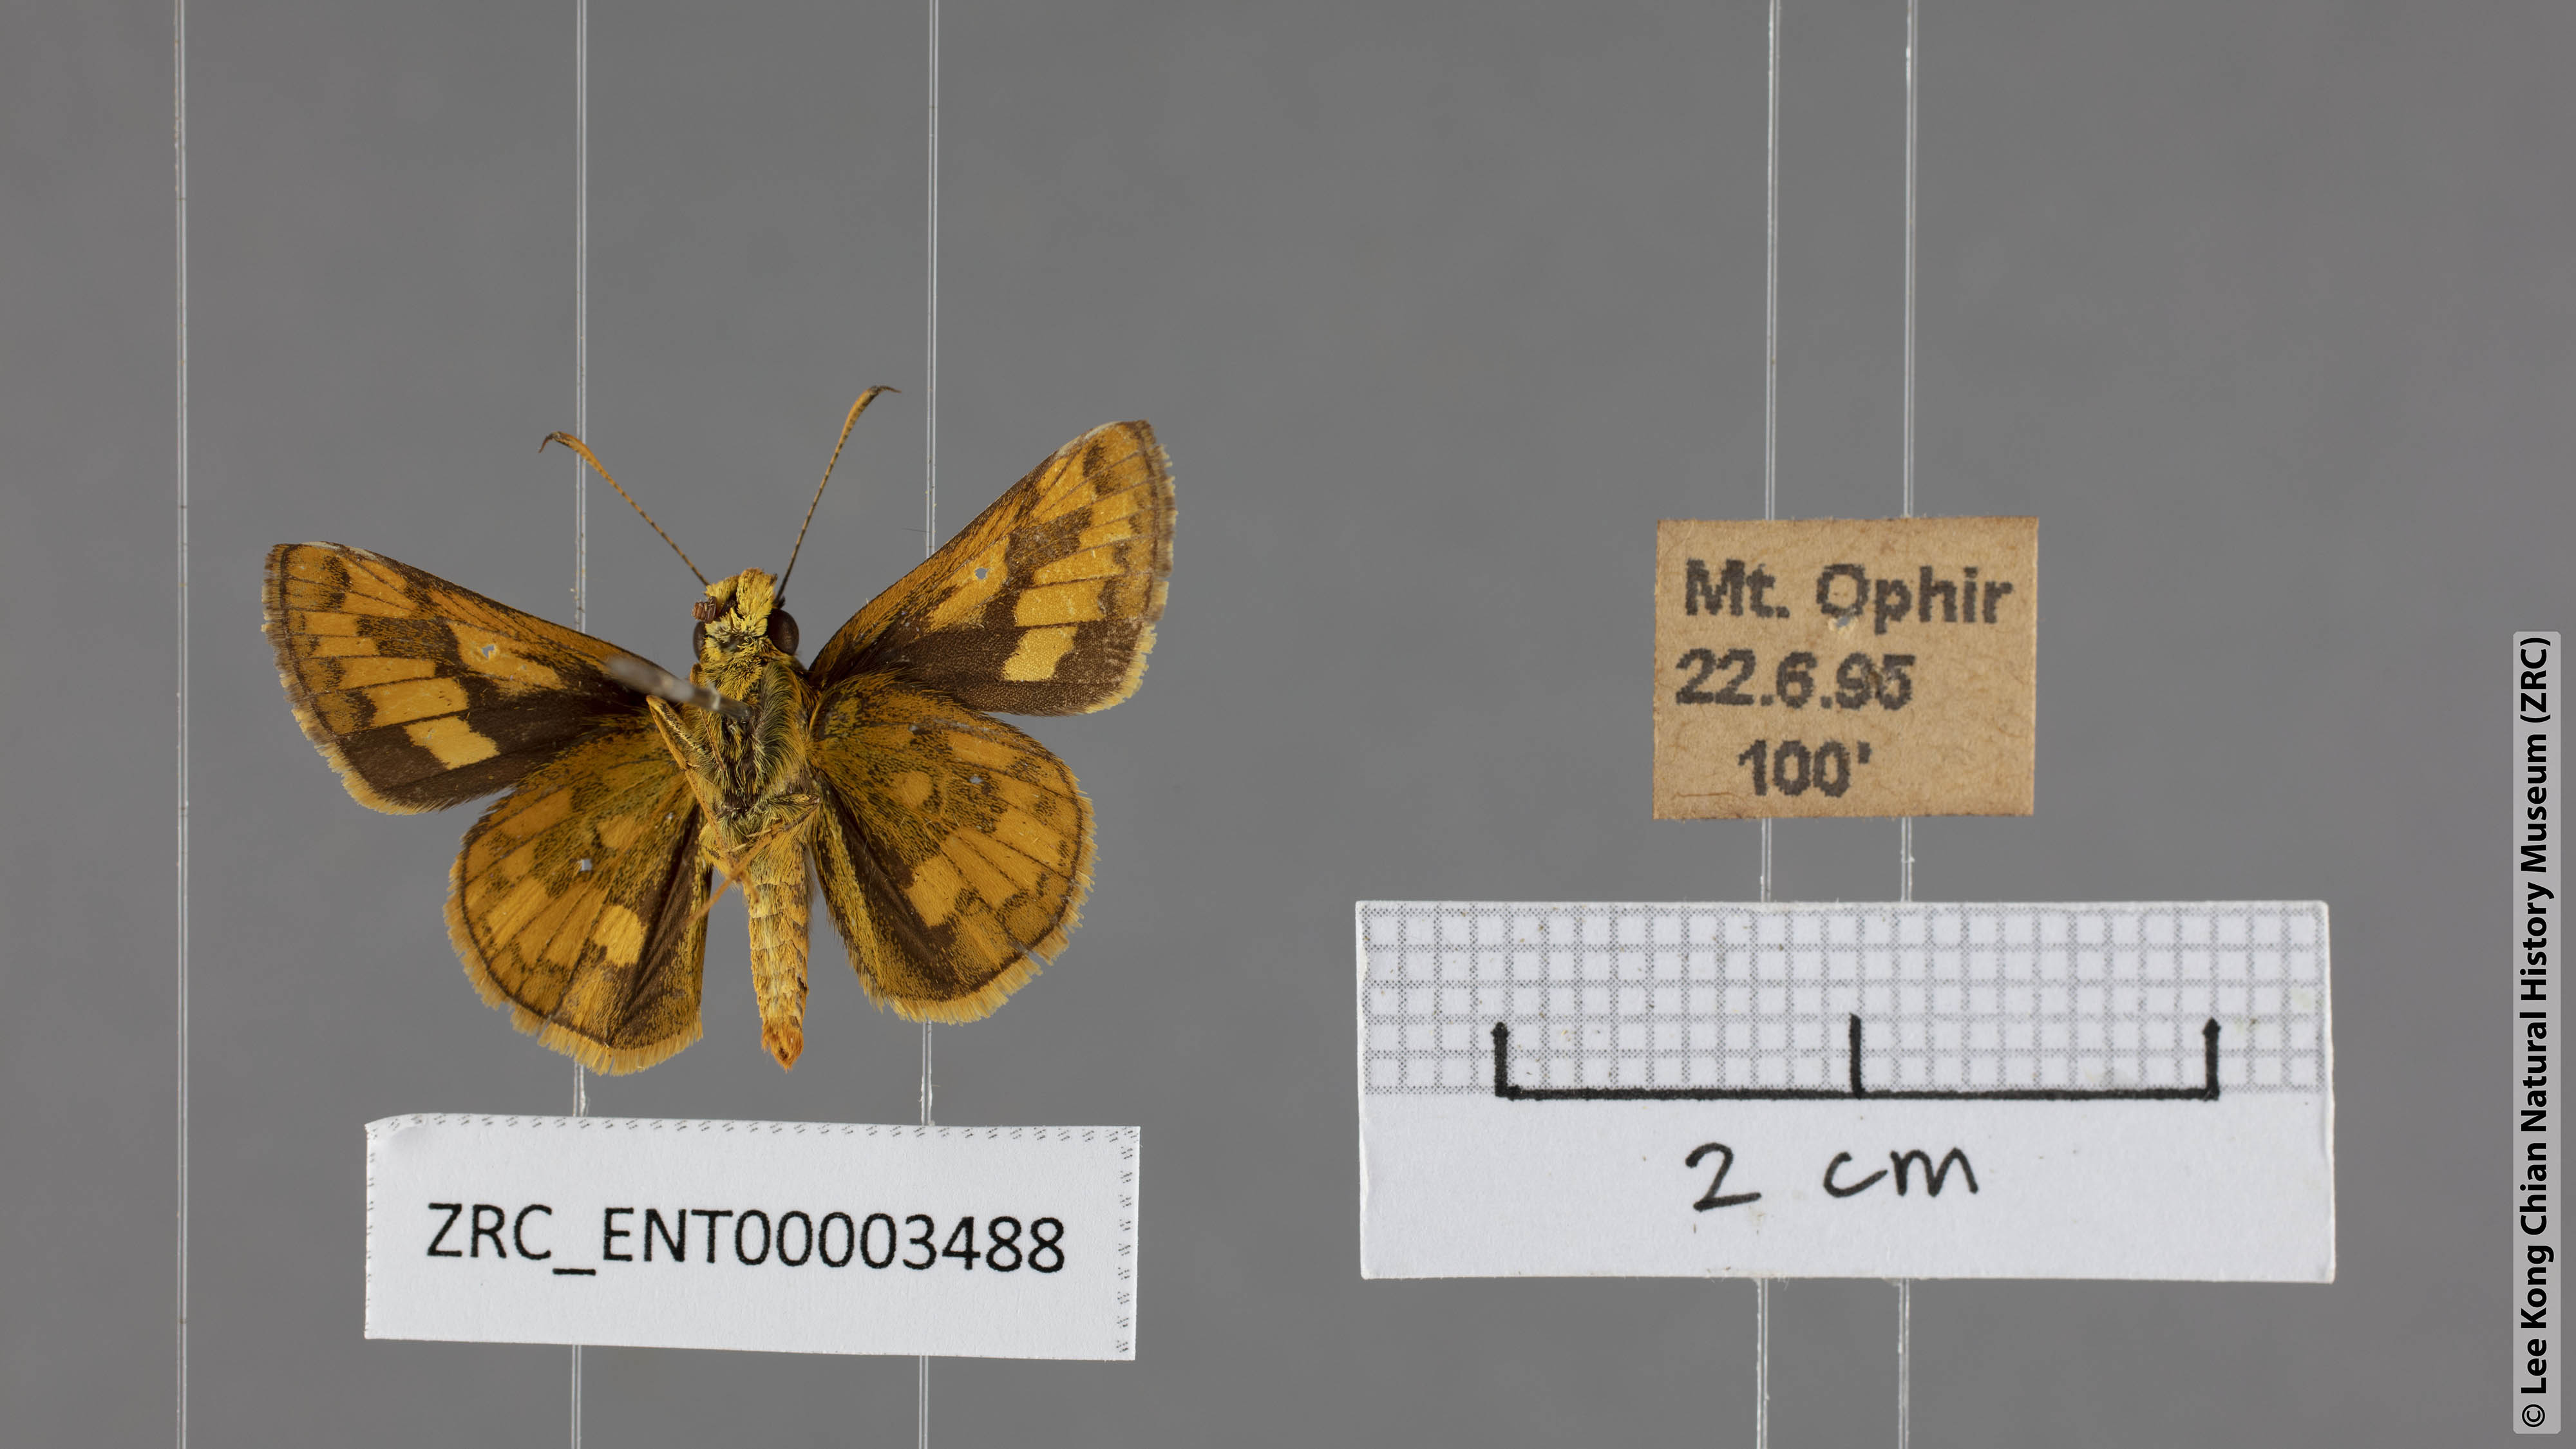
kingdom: Animalia
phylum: Arthropoda
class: Insecta
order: Lepidoptera
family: Hesperiidae
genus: Potanthus
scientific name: Potanthus pava
